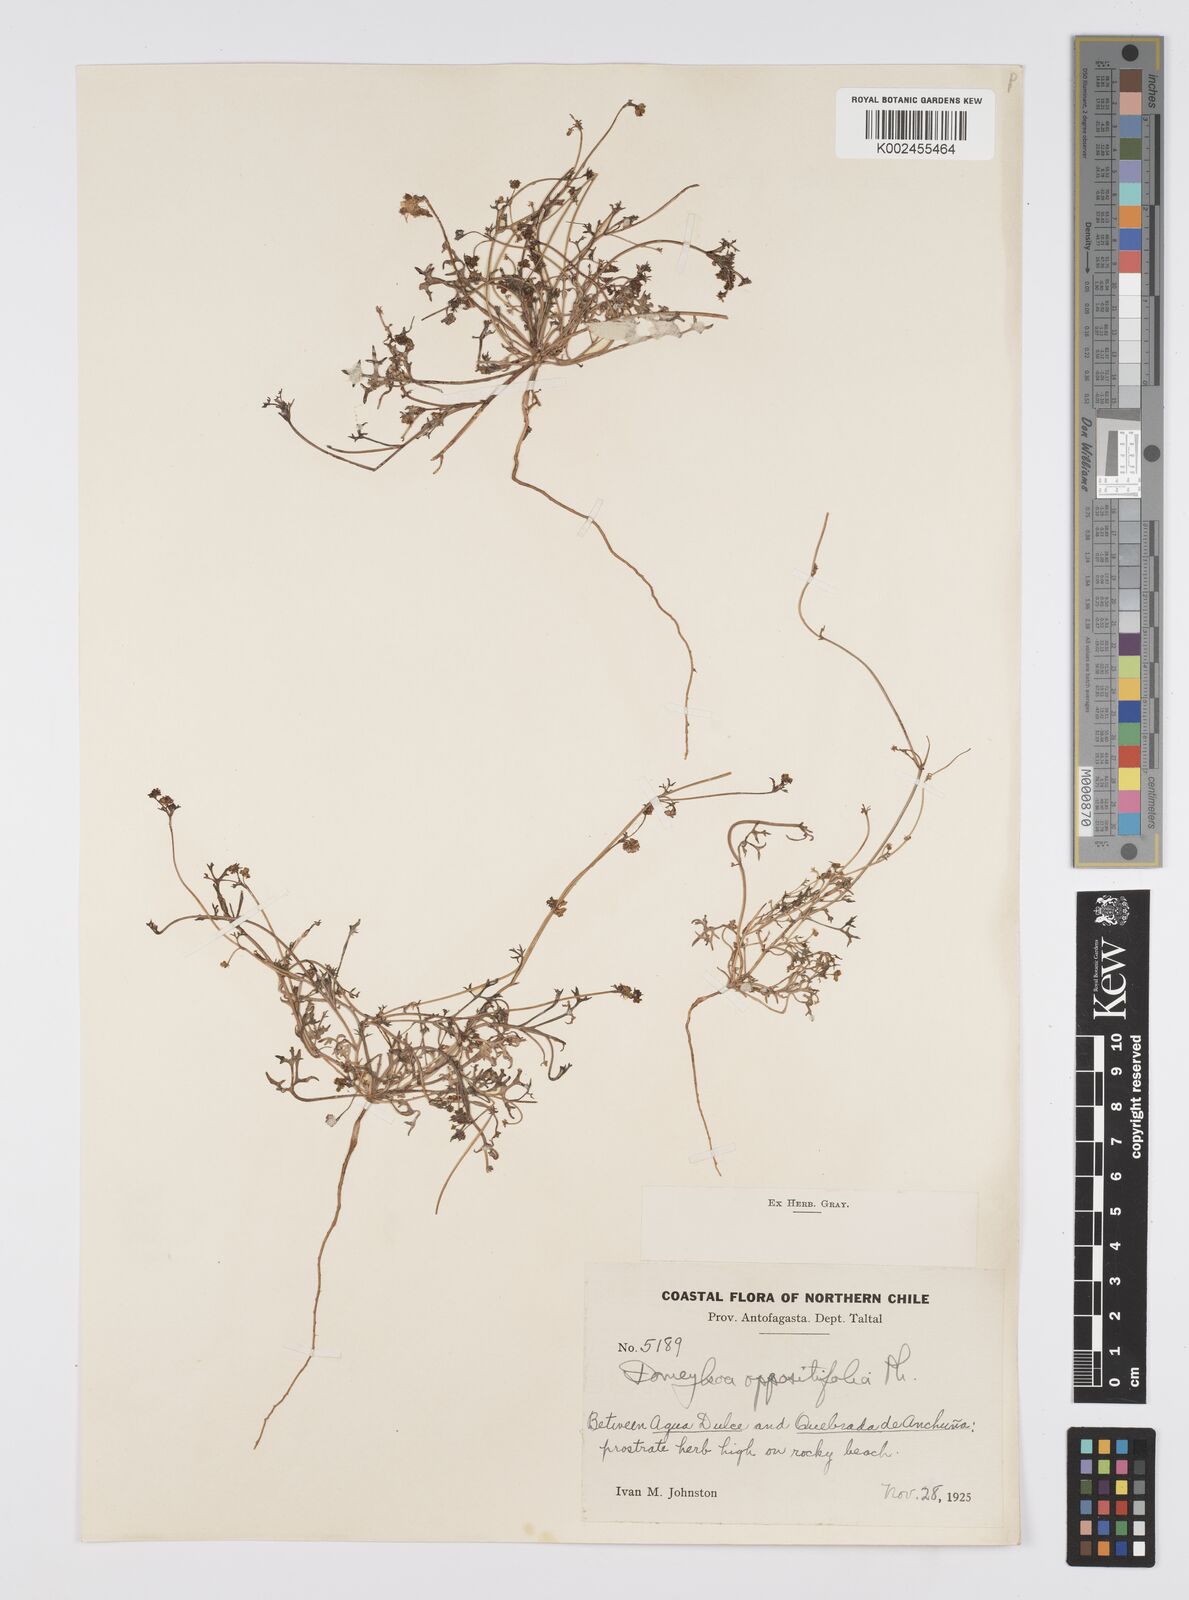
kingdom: Plantae
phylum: Tracheophyta
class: Magnoliopsida
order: Apiales
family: Apiaceae
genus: Domeykoa
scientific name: Domeykoa oppositifolia
